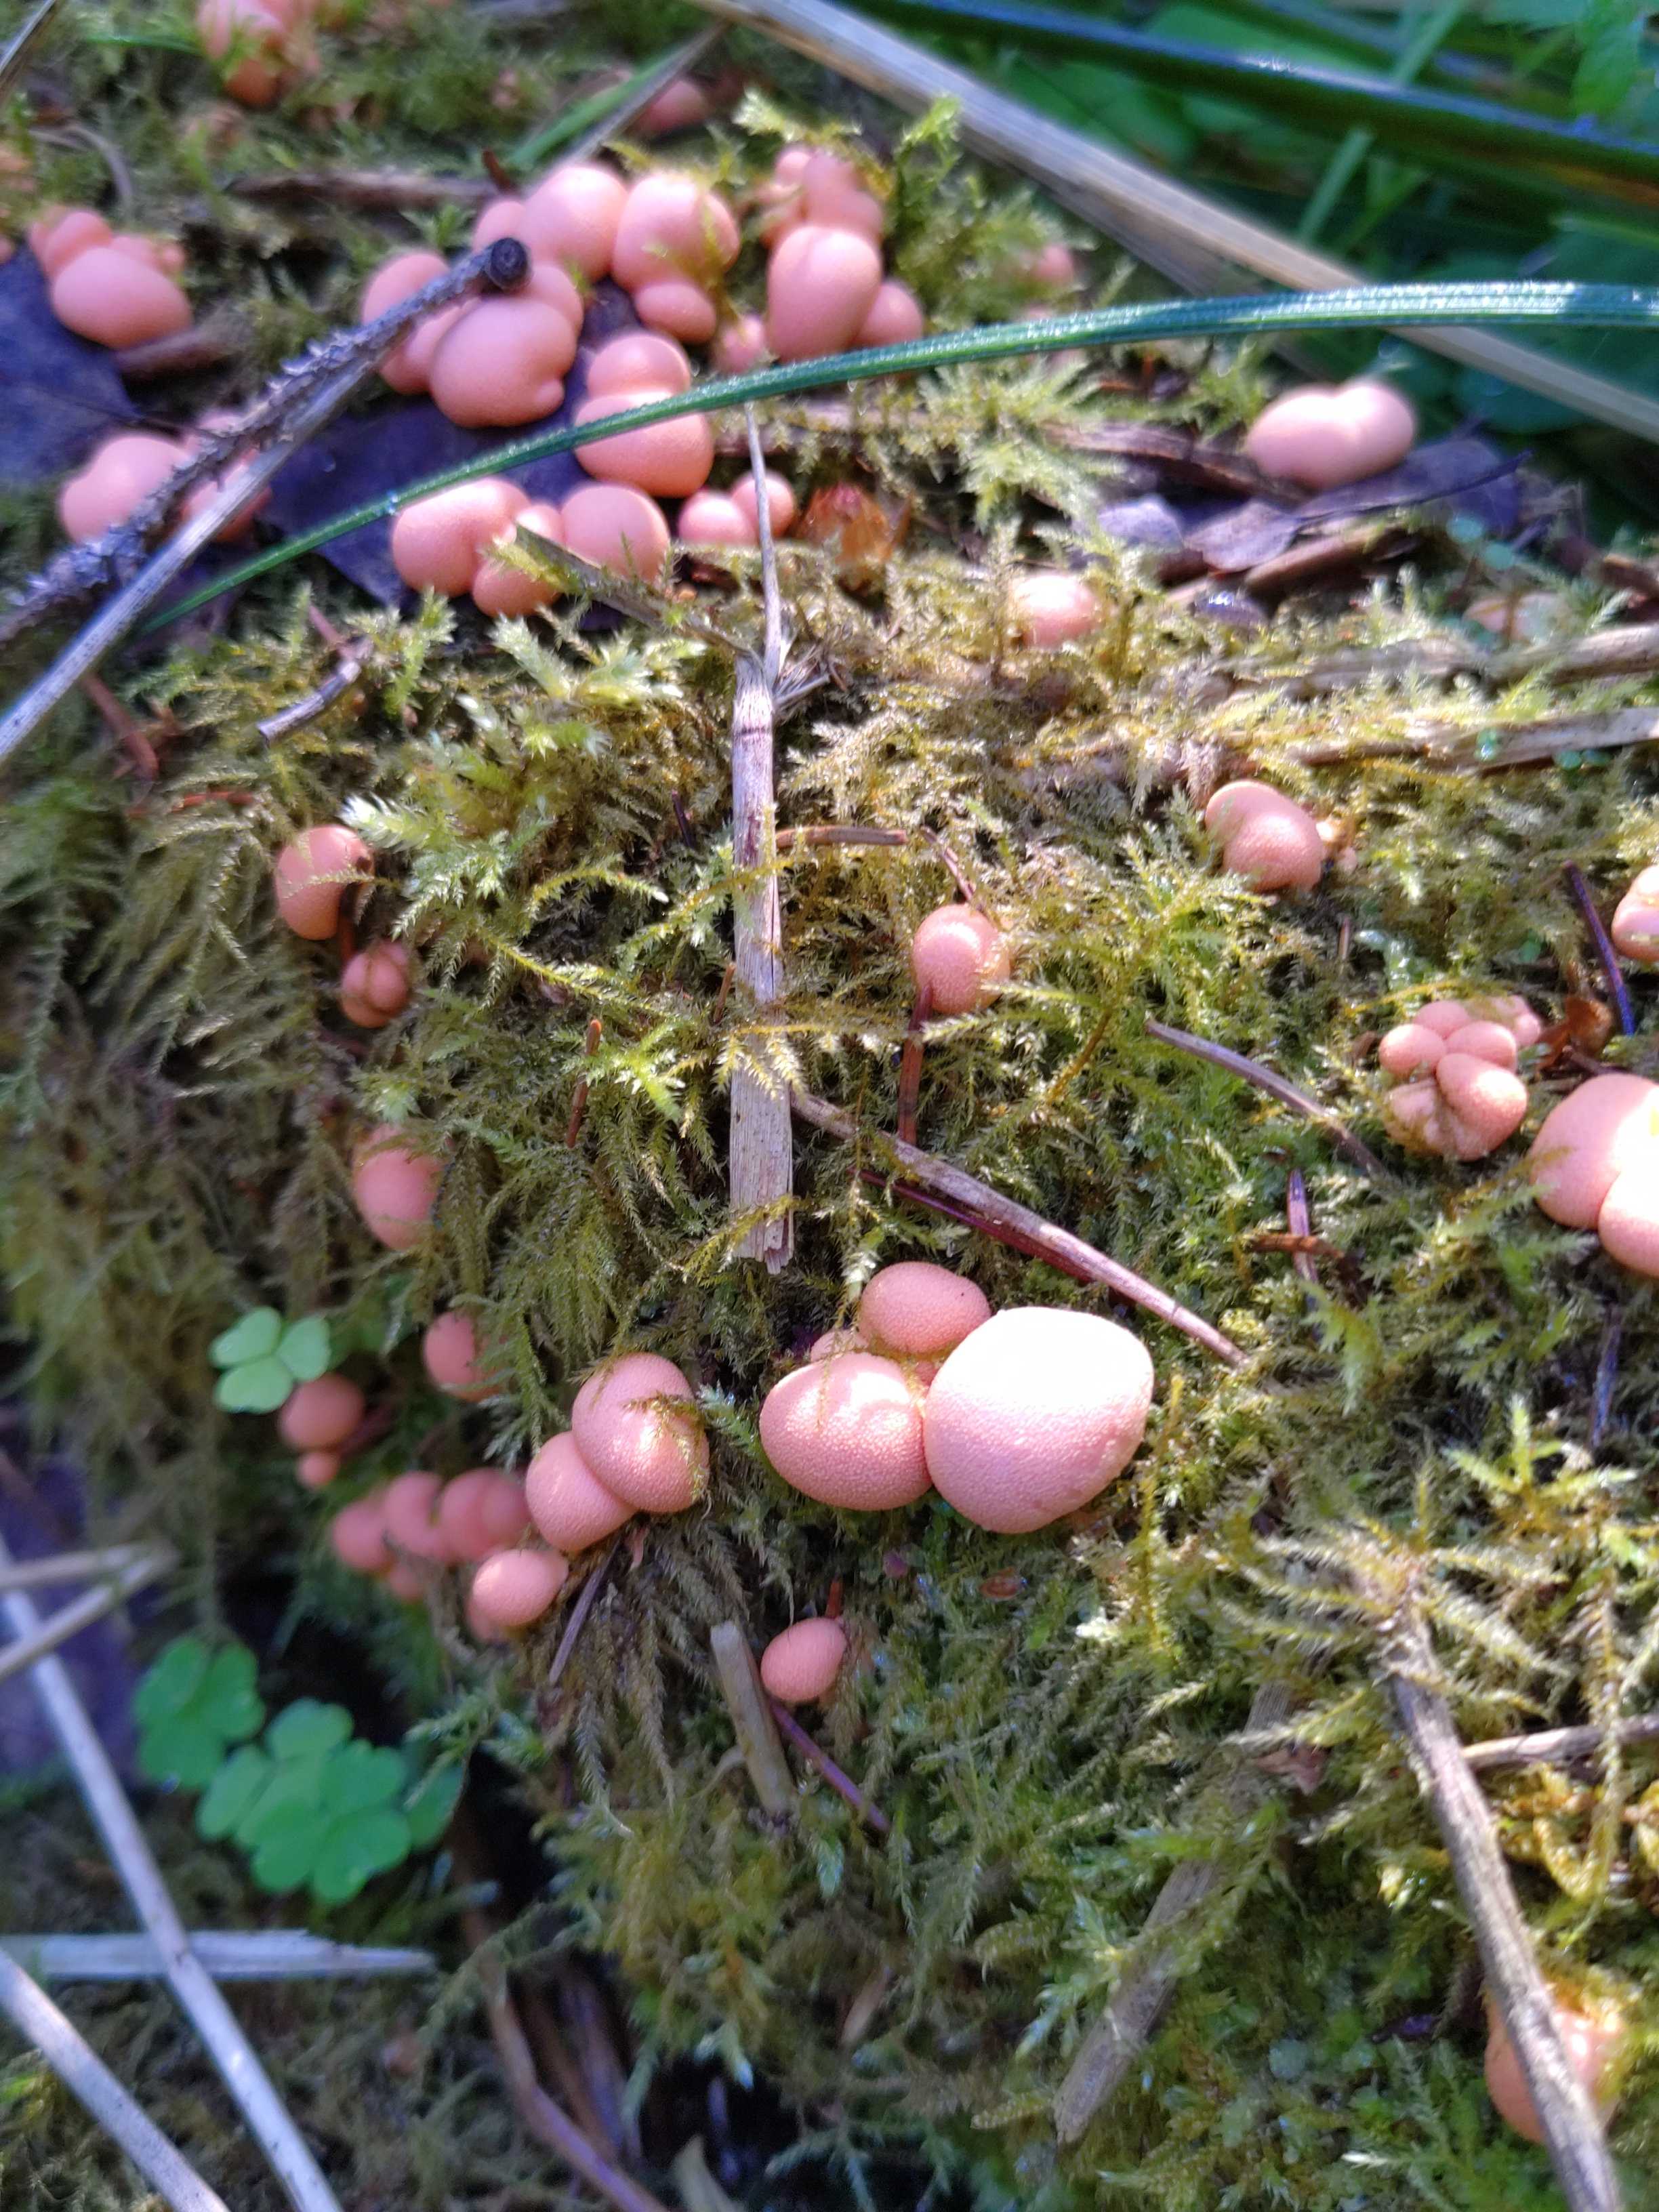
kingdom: Protozoa
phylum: Mycetozoa
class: Myxomycetes
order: Cribrariales
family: Tubiferaceae
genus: Lycogala
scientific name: Lycogala epidendrum
